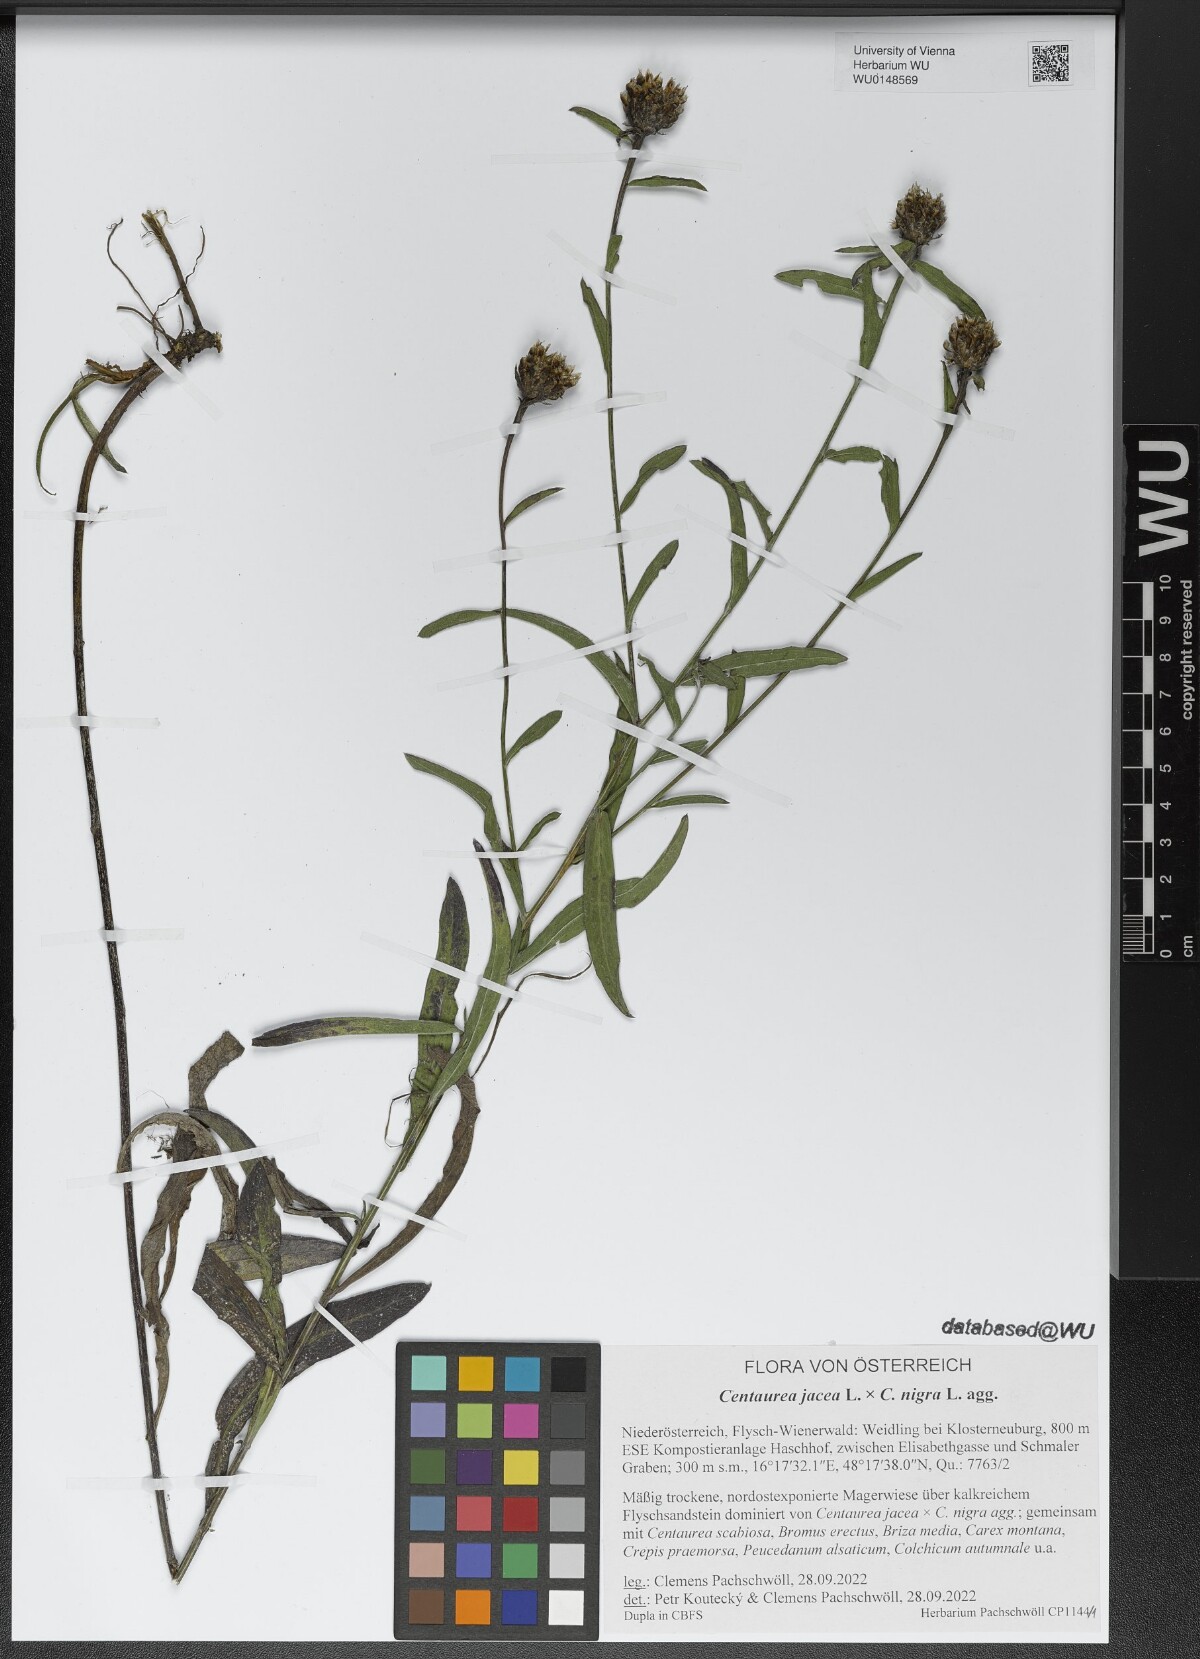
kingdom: Plantae
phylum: Tracheophyta
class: Magnoliopsida
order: Asterales
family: Asteraceae
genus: Centaurea
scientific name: Centaurea
